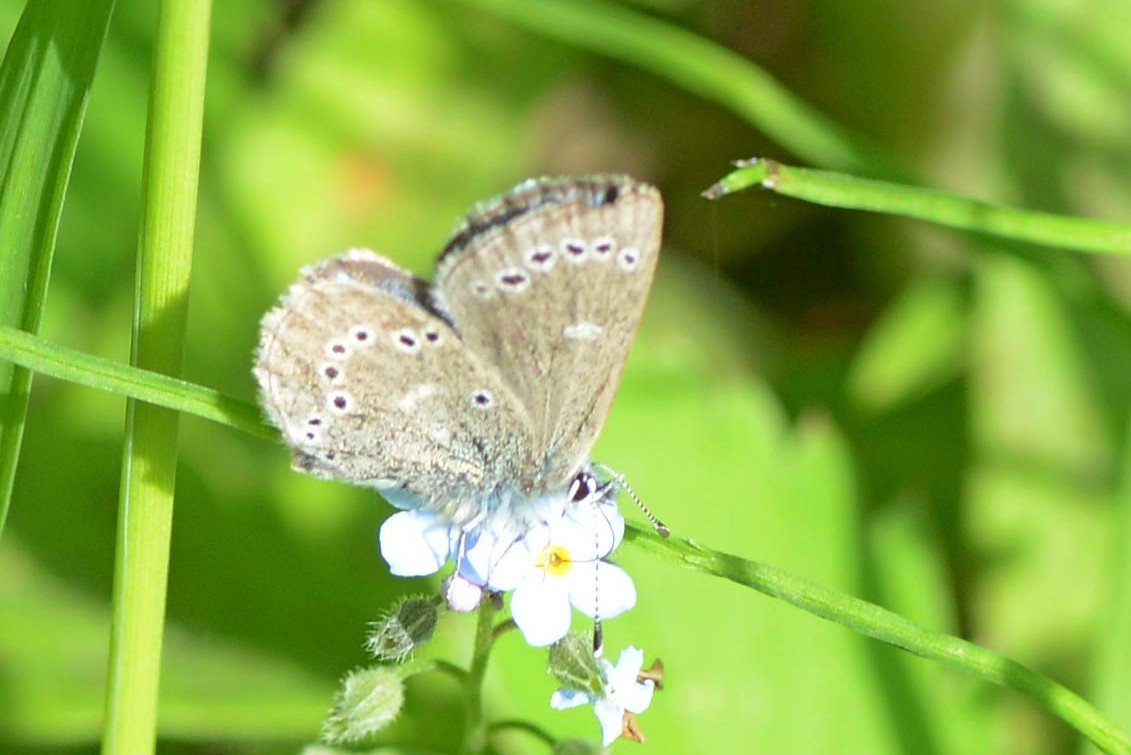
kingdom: Animalia
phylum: Arthropoda
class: Insecta
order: Lepidoptera
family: Lycaenidae
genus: Glaucopsyche
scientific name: Glaucopsyche lygdamus
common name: Silvery Blue
